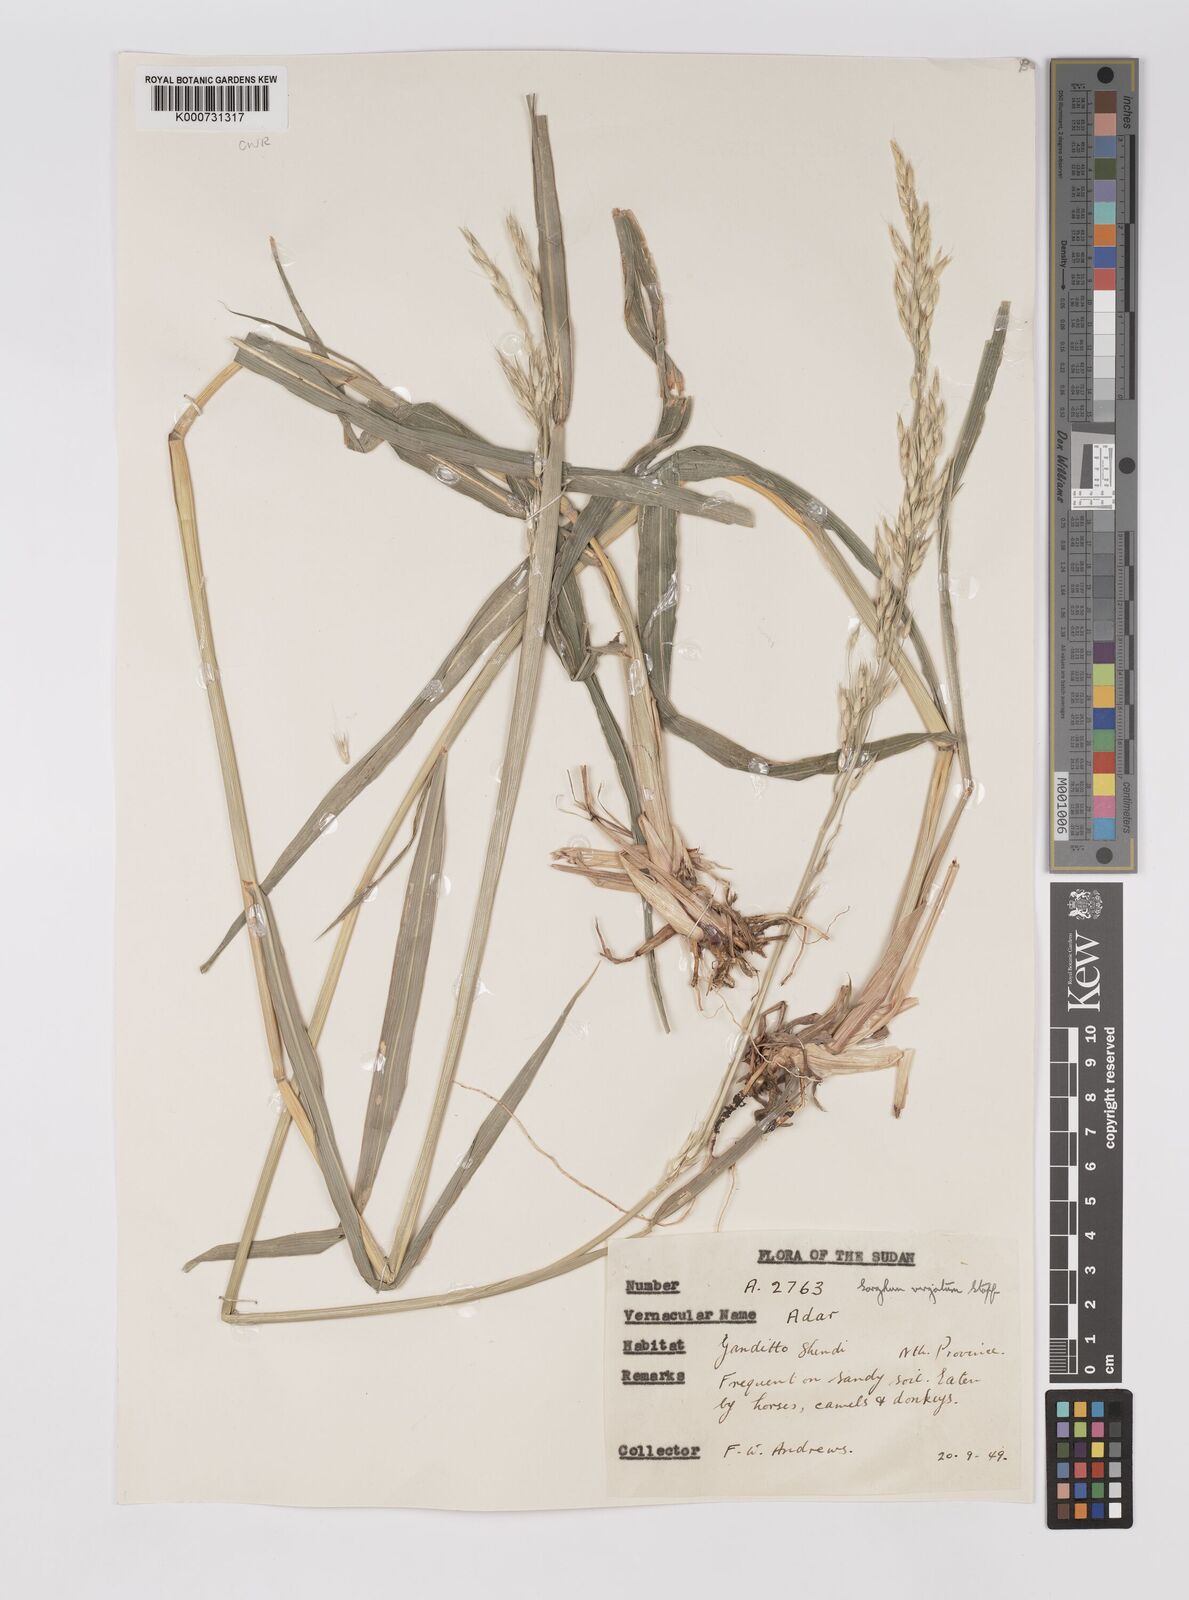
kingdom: Plantae
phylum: Tracheophyta
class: Liliopsida
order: Poales
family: Poaceae
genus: Sorghum
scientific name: Sorghum virgatum
